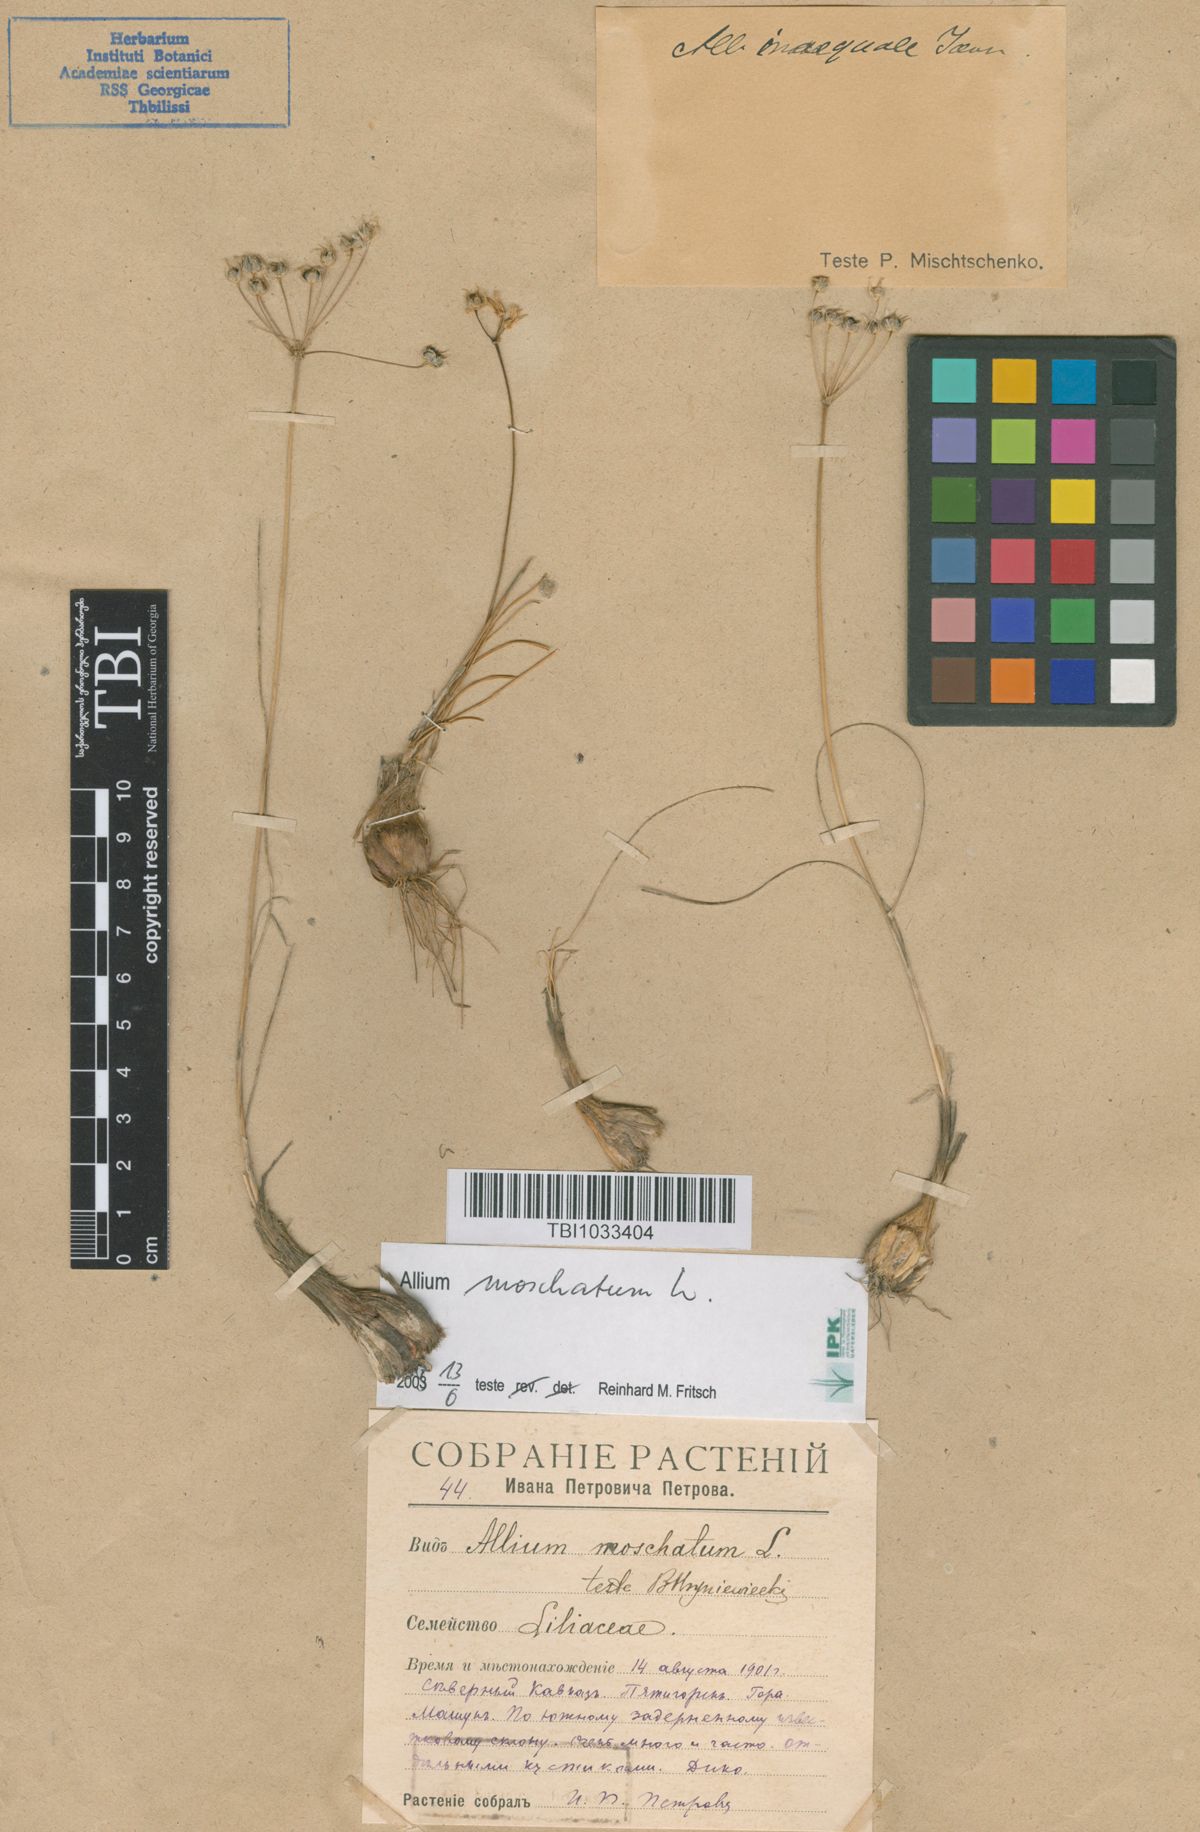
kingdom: Plantae
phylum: Tracheophyta
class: Liliopsida
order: Asparagales
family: Amaryllidaceae
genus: Allium
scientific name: Allium moschatum
